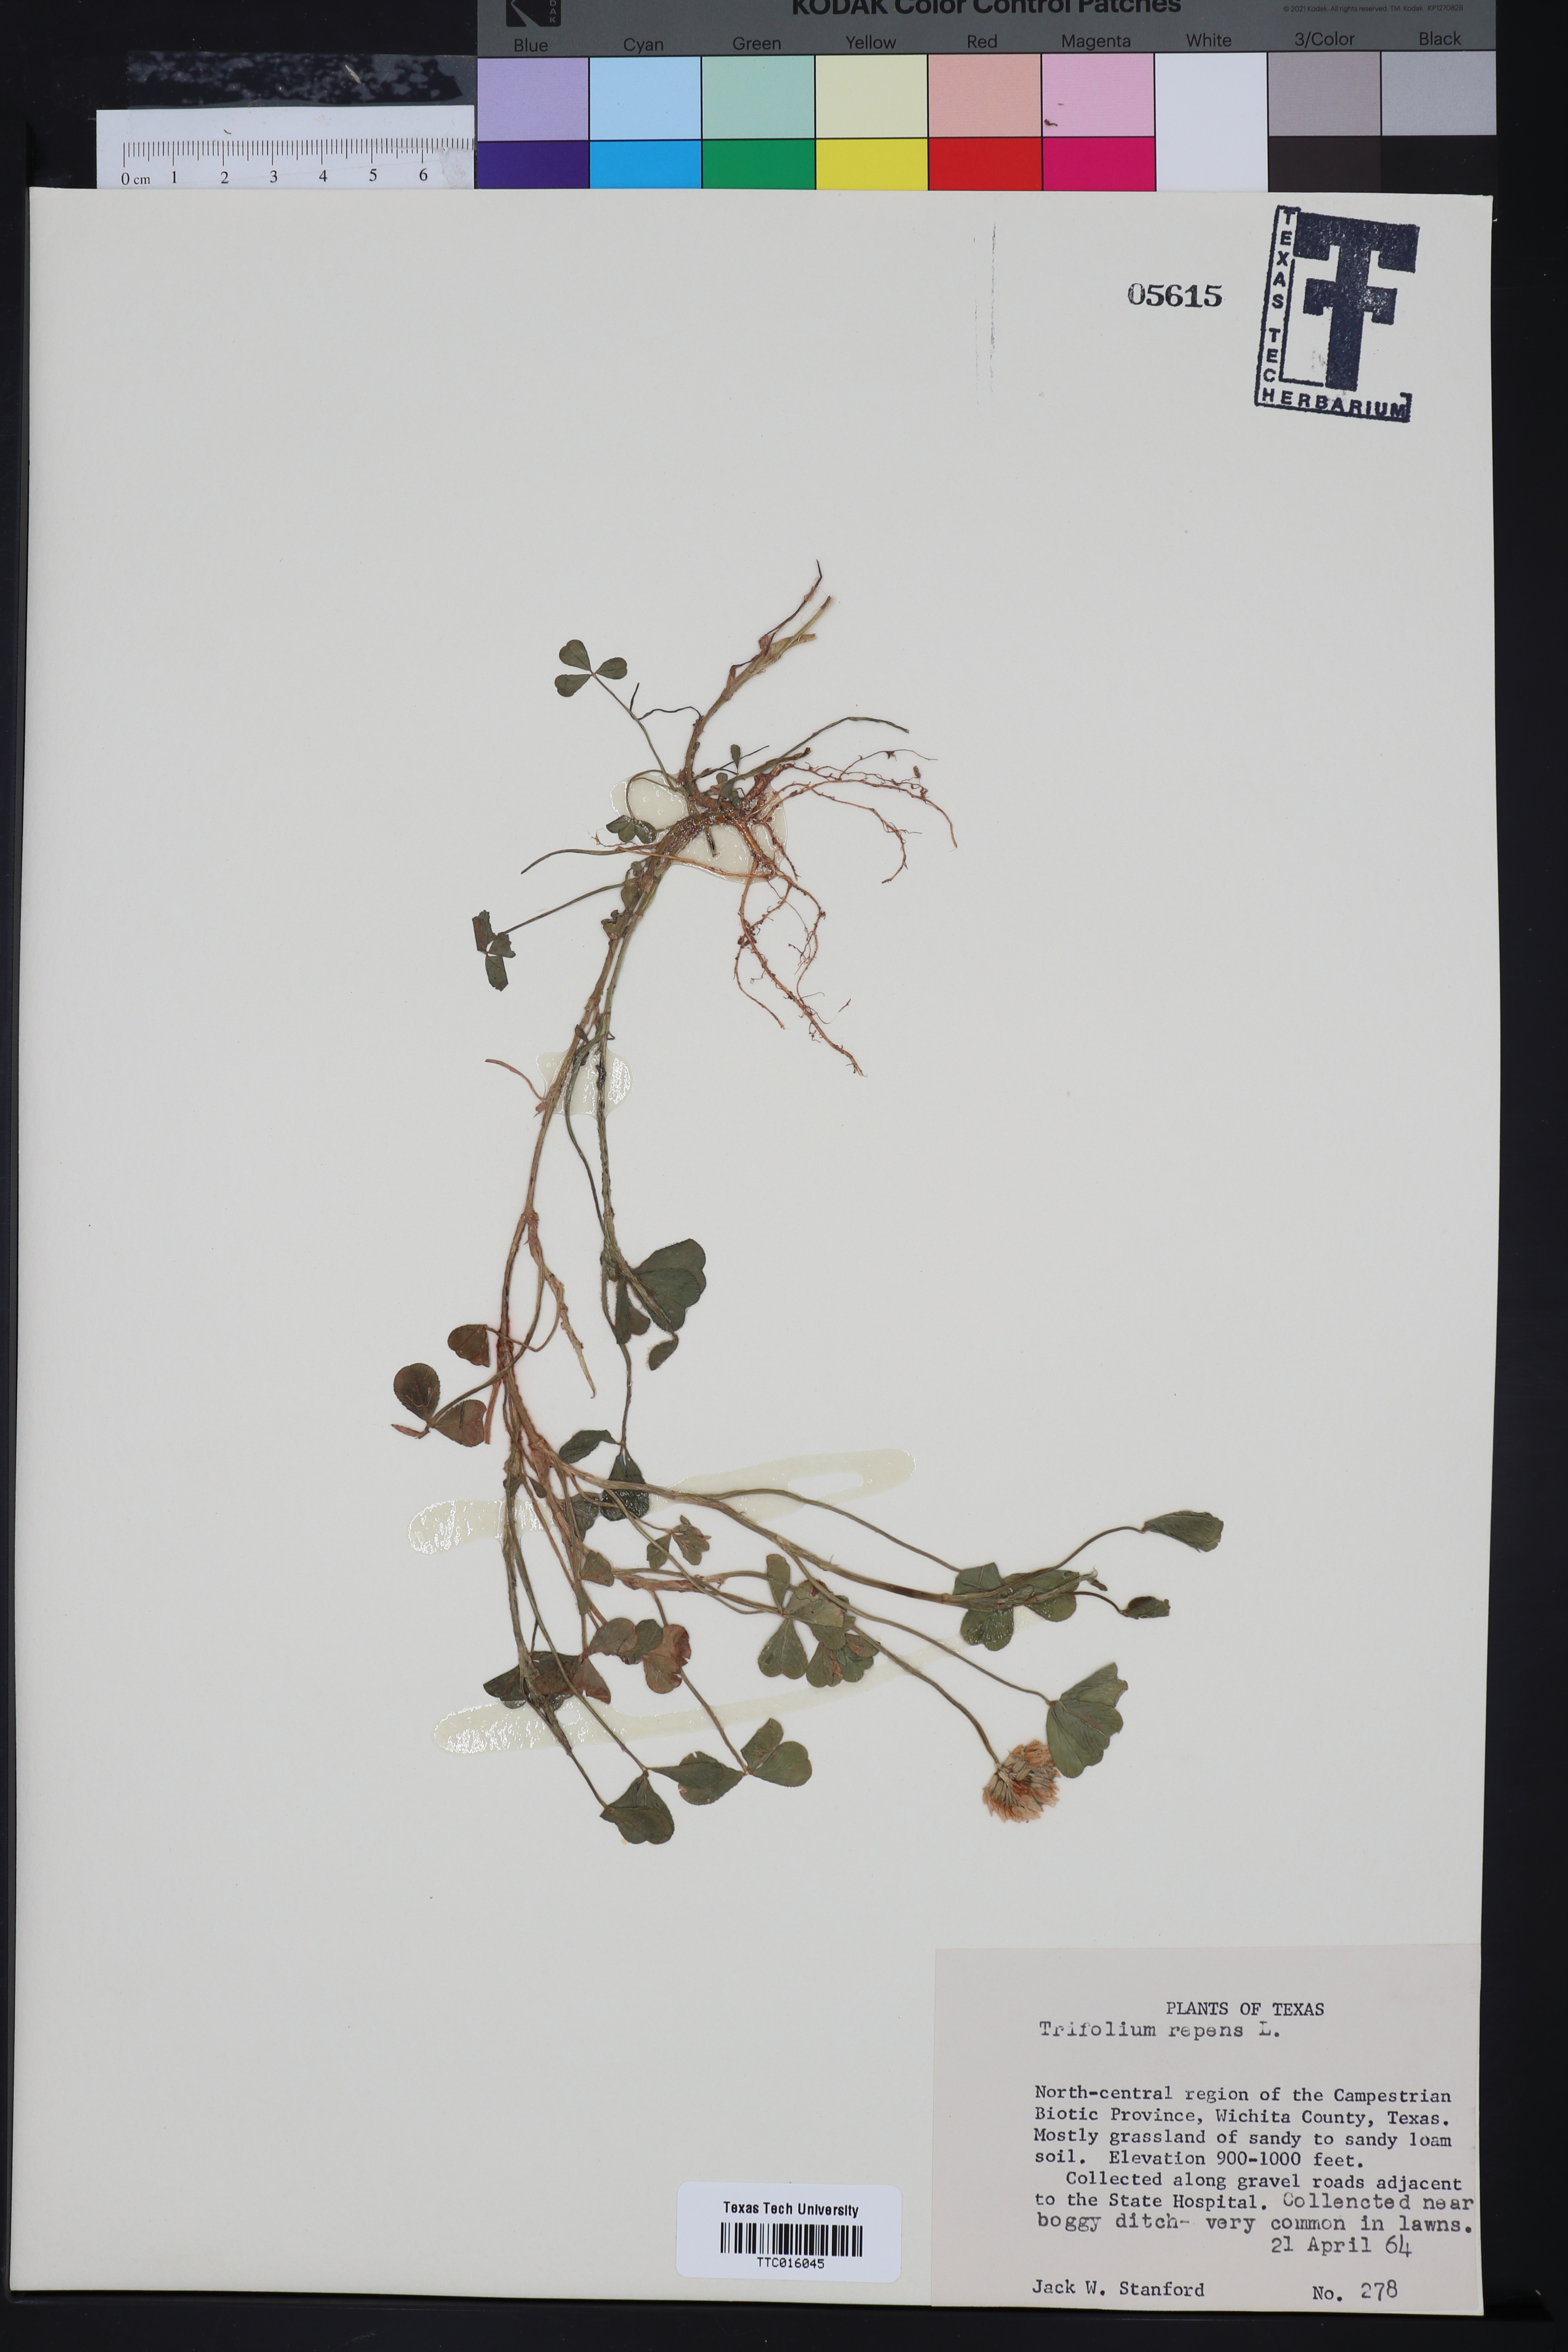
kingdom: Plantae
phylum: Tracheophyta
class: Magnoliopsida
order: Fabales
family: Fabaceae
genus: Trifolium
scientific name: Trifolium repens
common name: White clover
